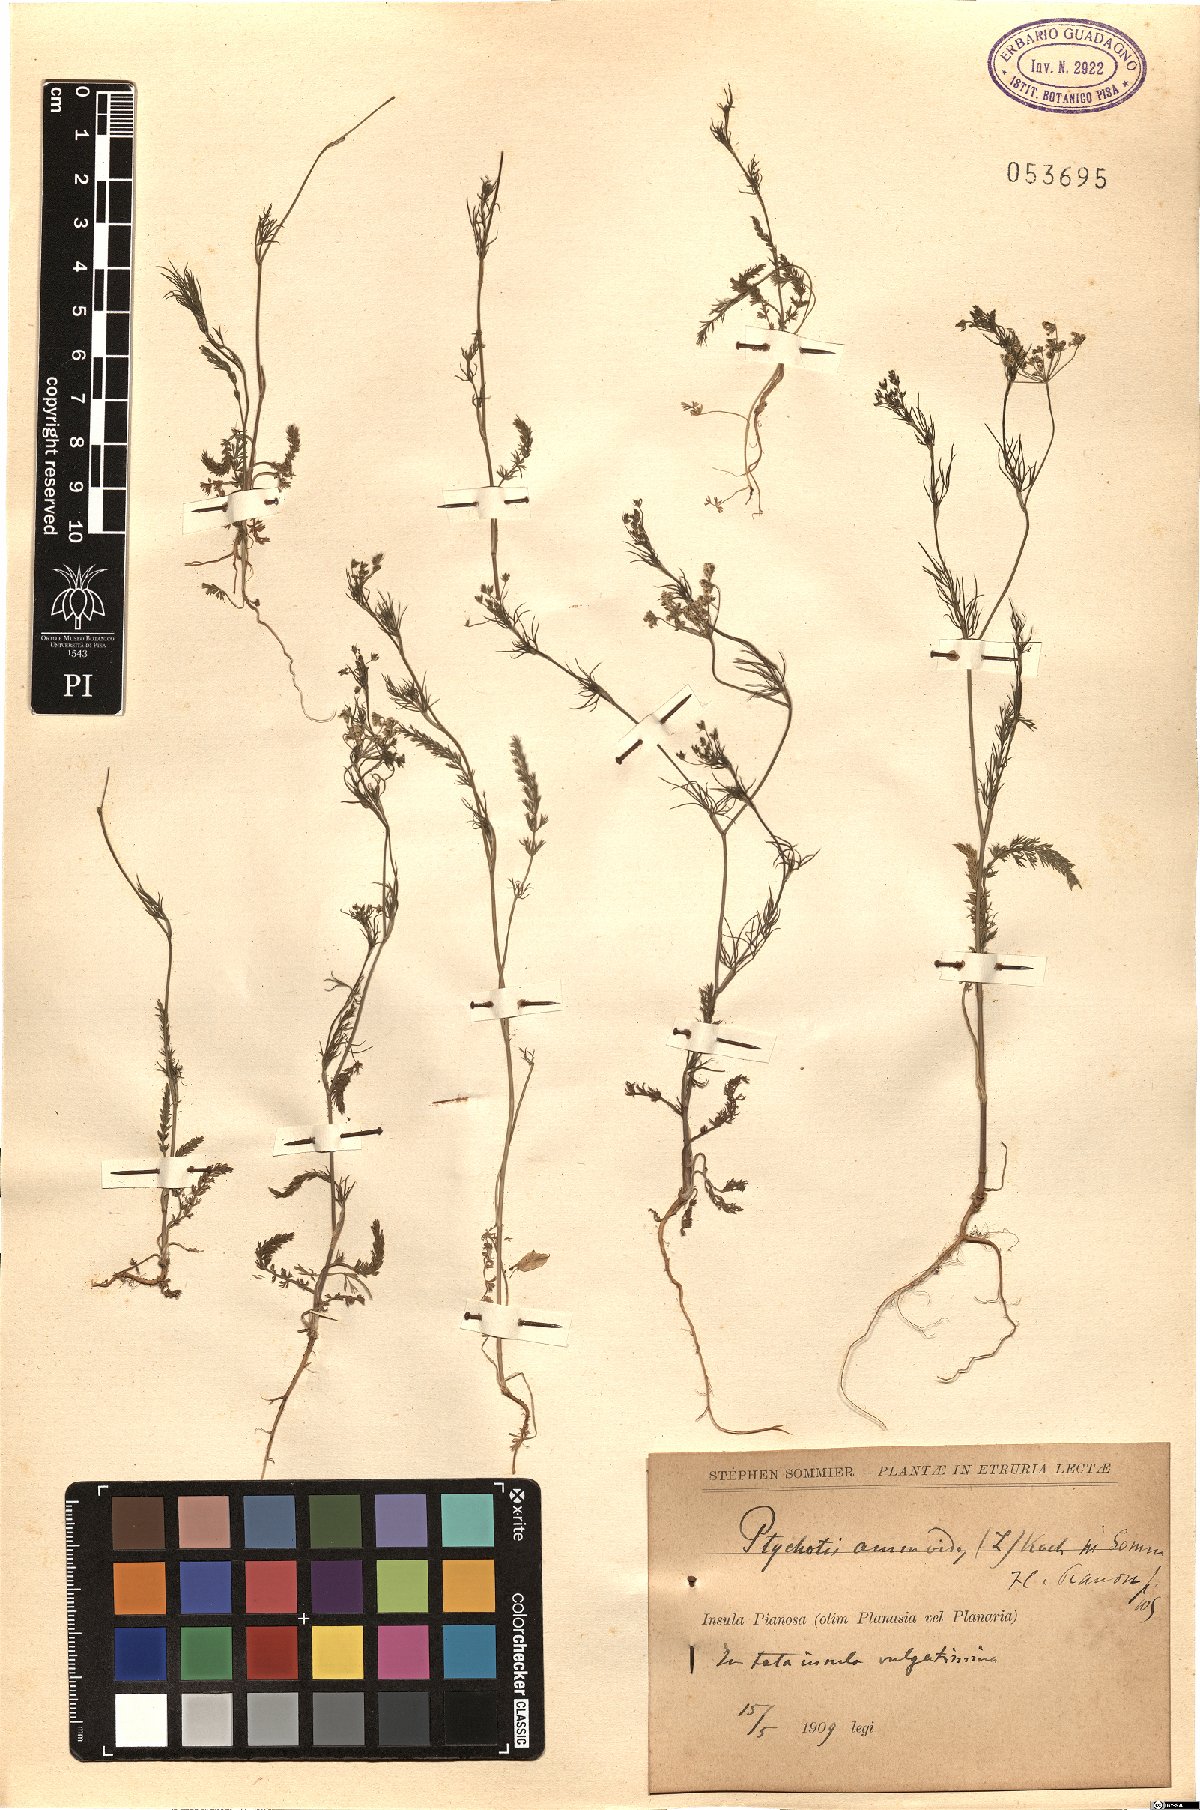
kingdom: Plantae
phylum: Tracheophyta
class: Magnoliopsida
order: Apiales
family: Apiaceae
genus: Ammoides
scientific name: Ammoides pusilla
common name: Cerfolium
